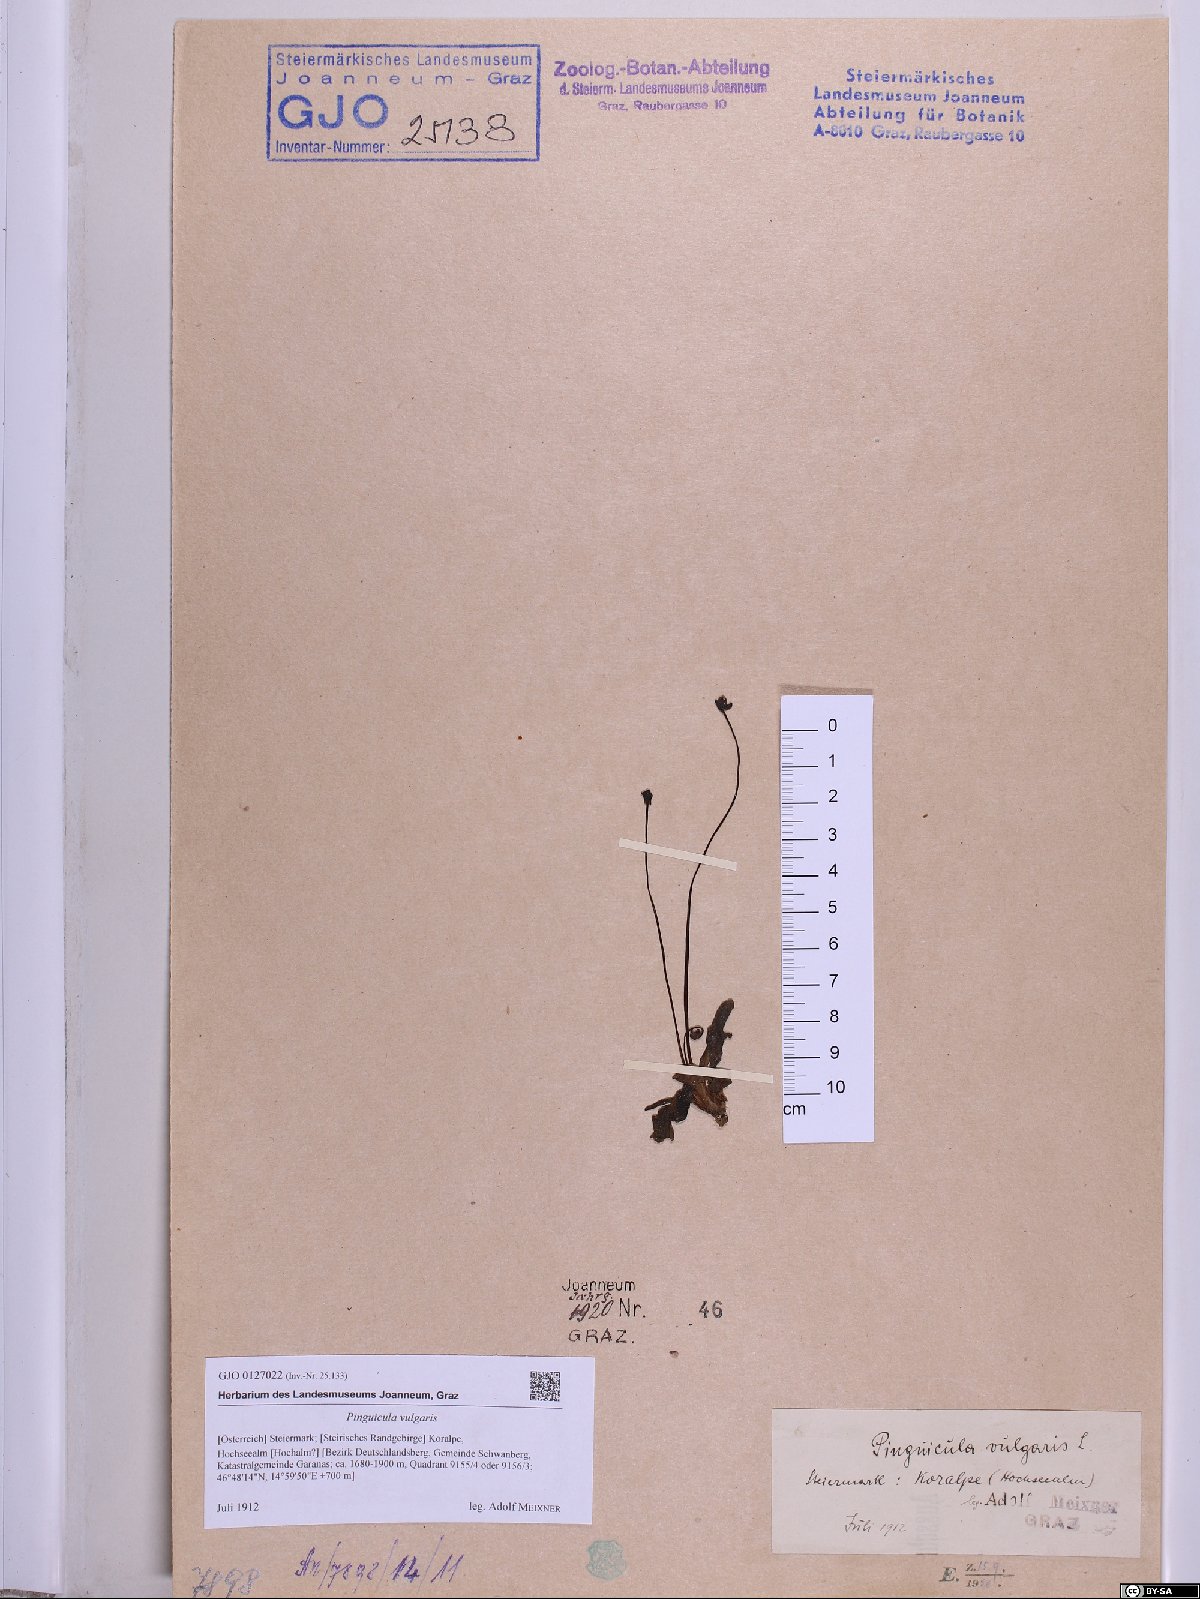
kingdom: Plantae
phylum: Tracheophyta
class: Magnoliopsida
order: Lamiales
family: Lentibulariaceae
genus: Pinguicula
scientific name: Pinguicula vulgaris
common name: Common butterwort
